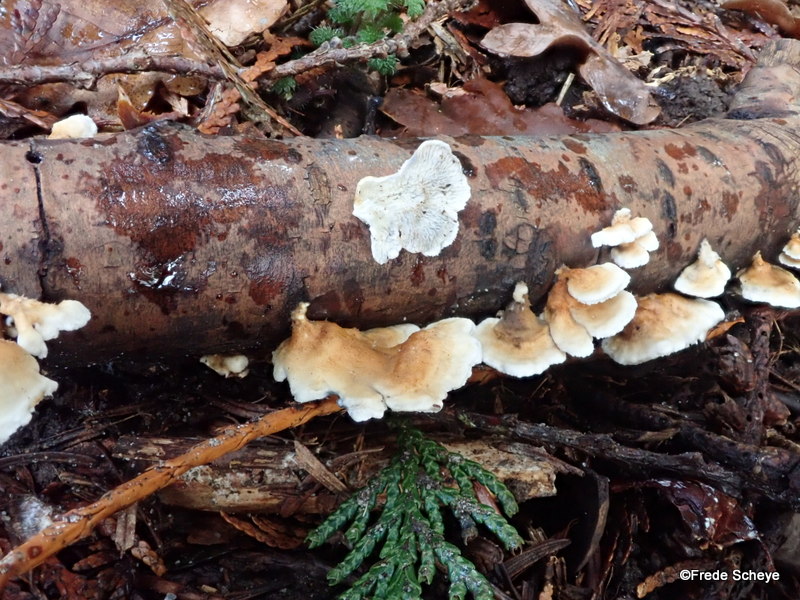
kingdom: Fungi
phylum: Basidiomycota
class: Agaricomycetes
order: Amylocorticiales
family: Amylocorticiaceae
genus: Plicaturopsis
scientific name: Plicaturopsis crispa
